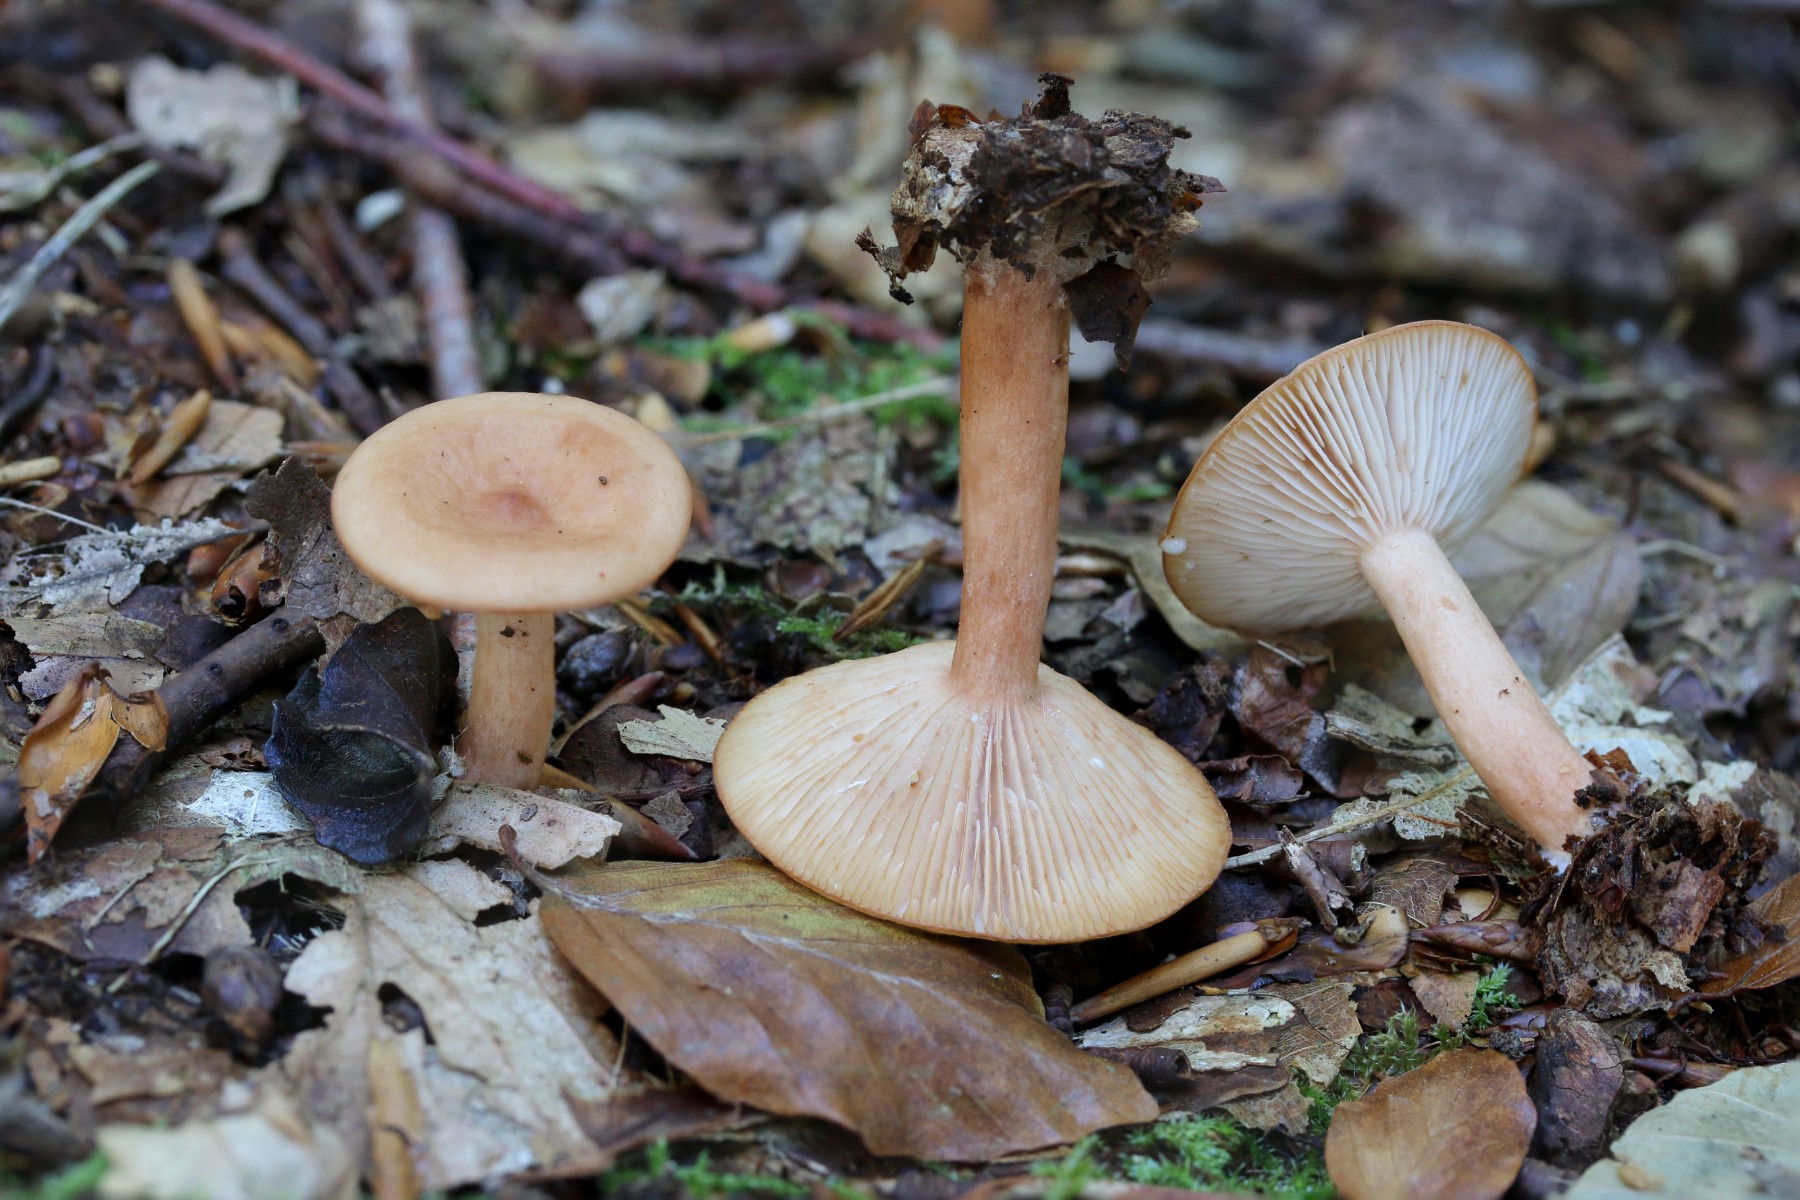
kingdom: Fungi
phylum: Basidiomycota
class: Agaricomycetes
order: Russulales
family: Russulaceae
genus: Lactarius
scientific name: Lactarius subdulcis
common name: sødlig mælkehat
